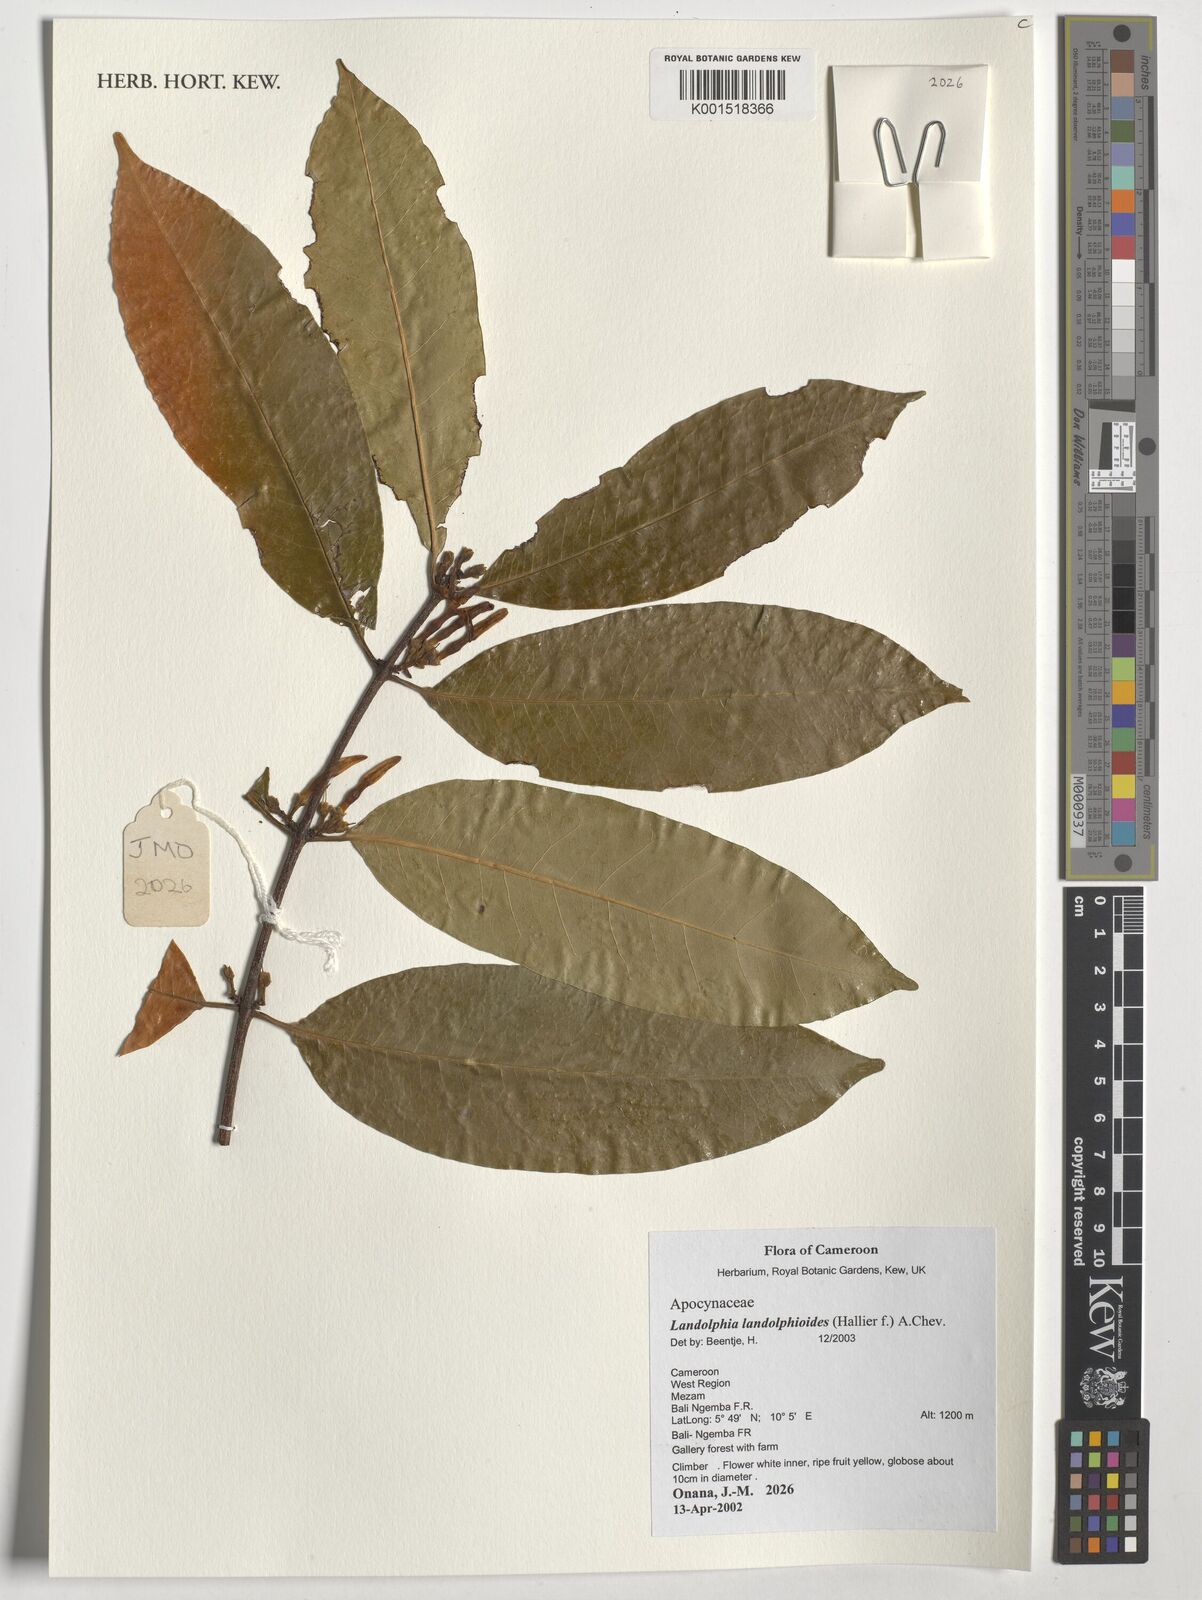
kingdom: Plantae
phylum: Tracheophyta
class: Magnoliopsida
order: Gentianales
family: Apocynaceae
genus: Landolphia
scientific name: Landolphia landolphioides
